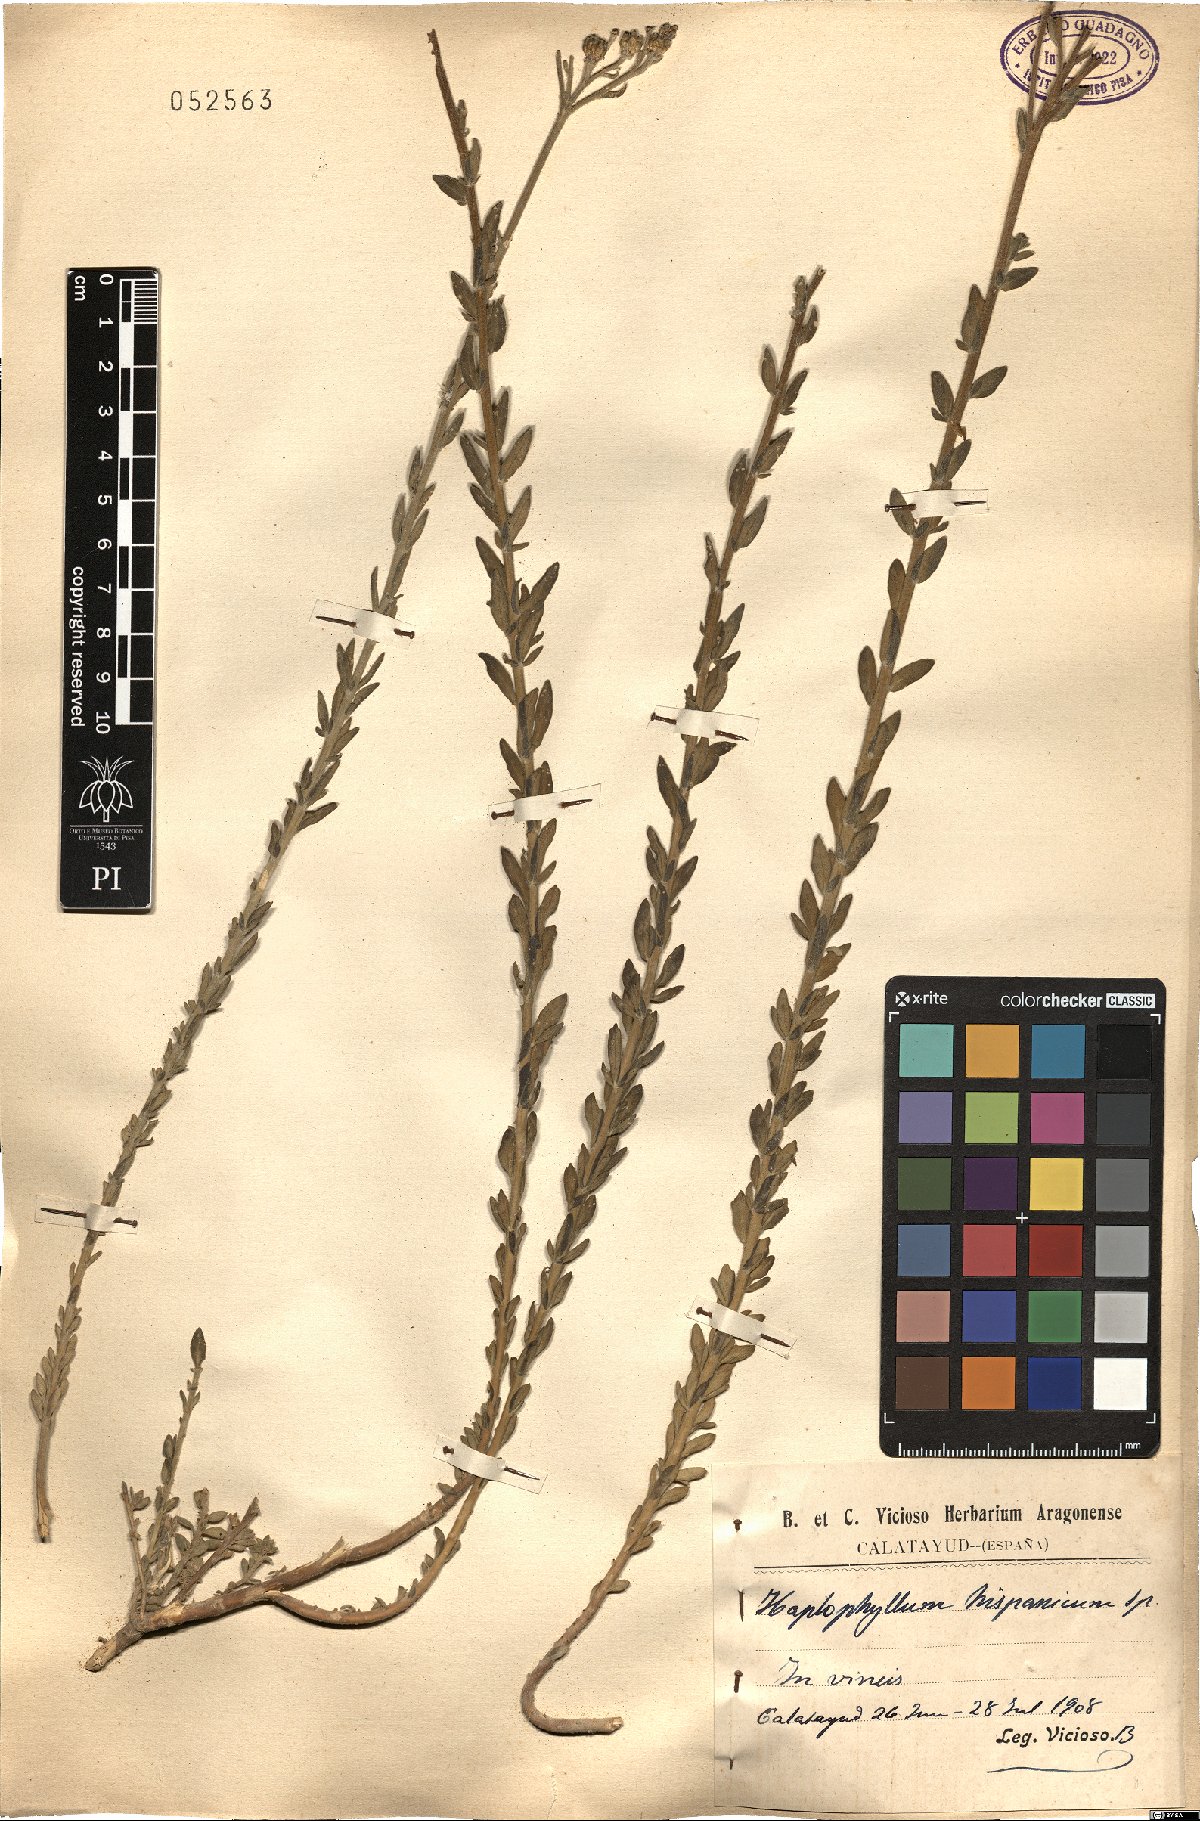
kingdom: Plantae
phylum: Tracheophyta
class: Magnoliopsida
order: Sapindales
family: Rutaceae
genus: Haplophyllum
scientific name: Haplophyllum
